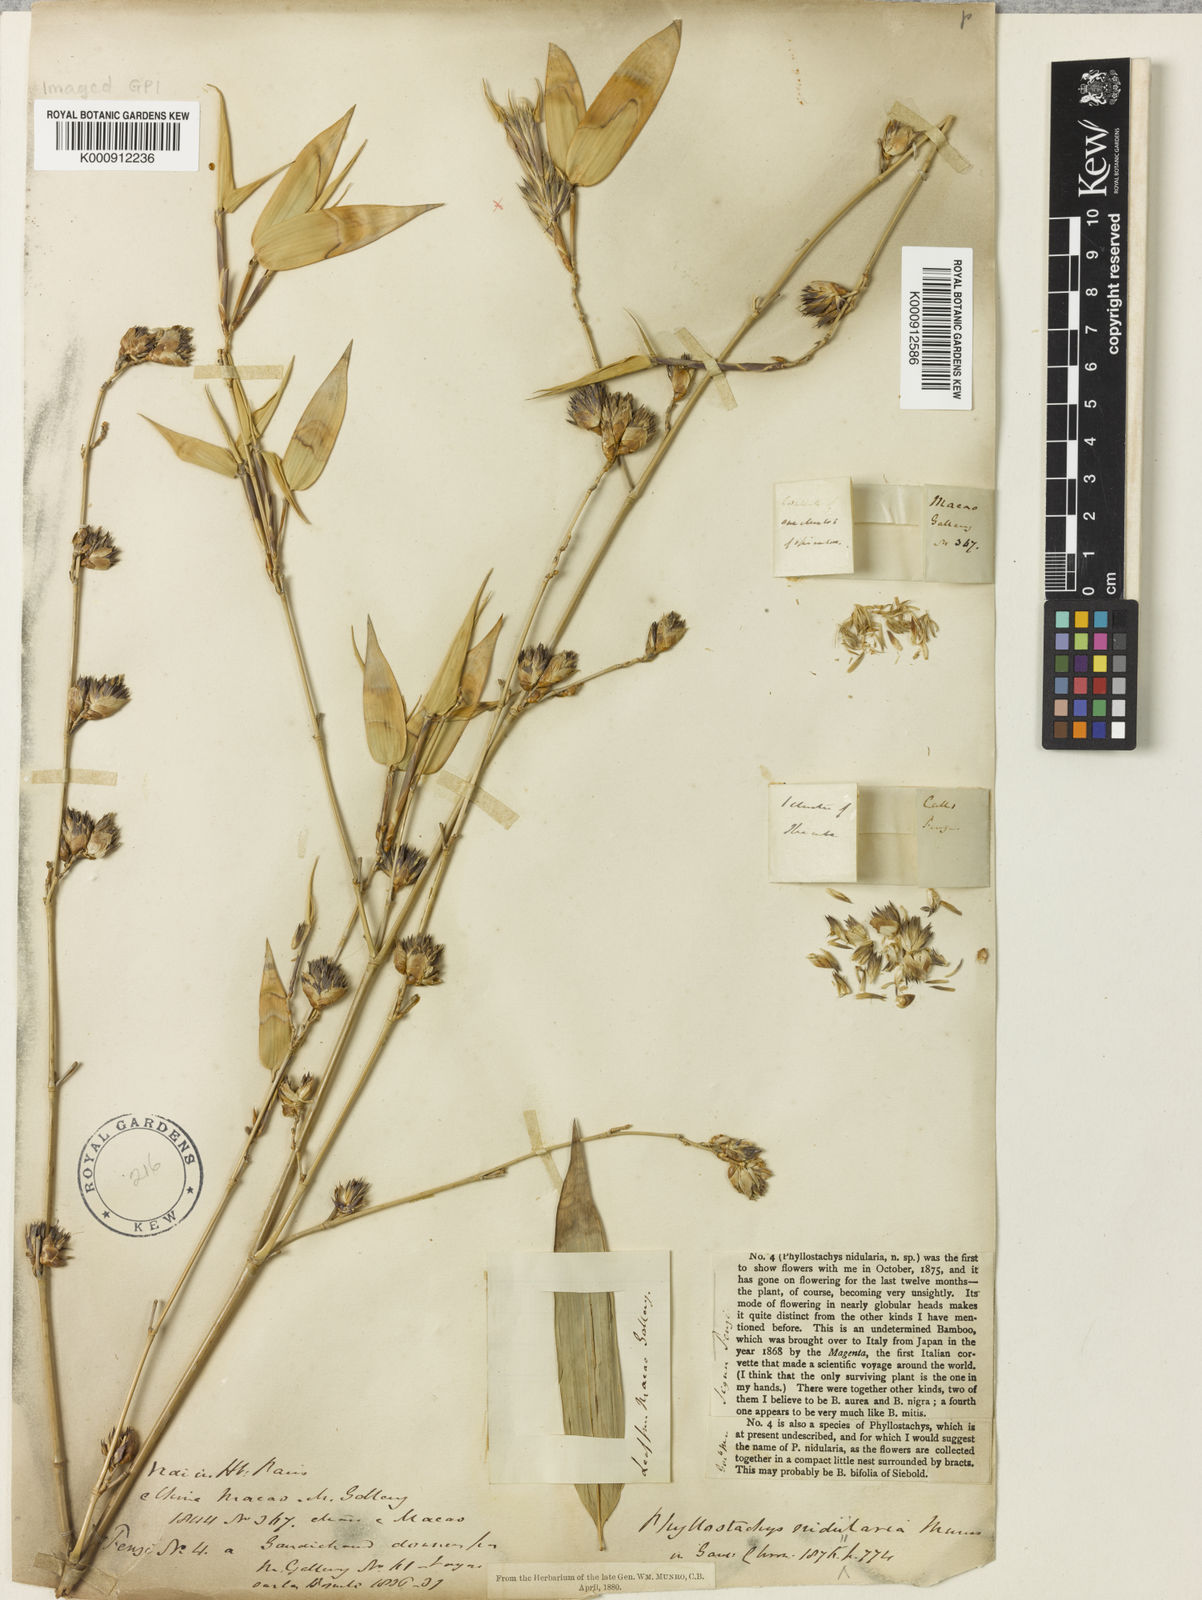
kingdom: Plantae
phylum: Tracheophyta
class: Liliopsida
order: Poales
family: Poaceae
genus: Phyllostachys
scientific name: Phyllostachys nidularia
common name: Broom bamboo
